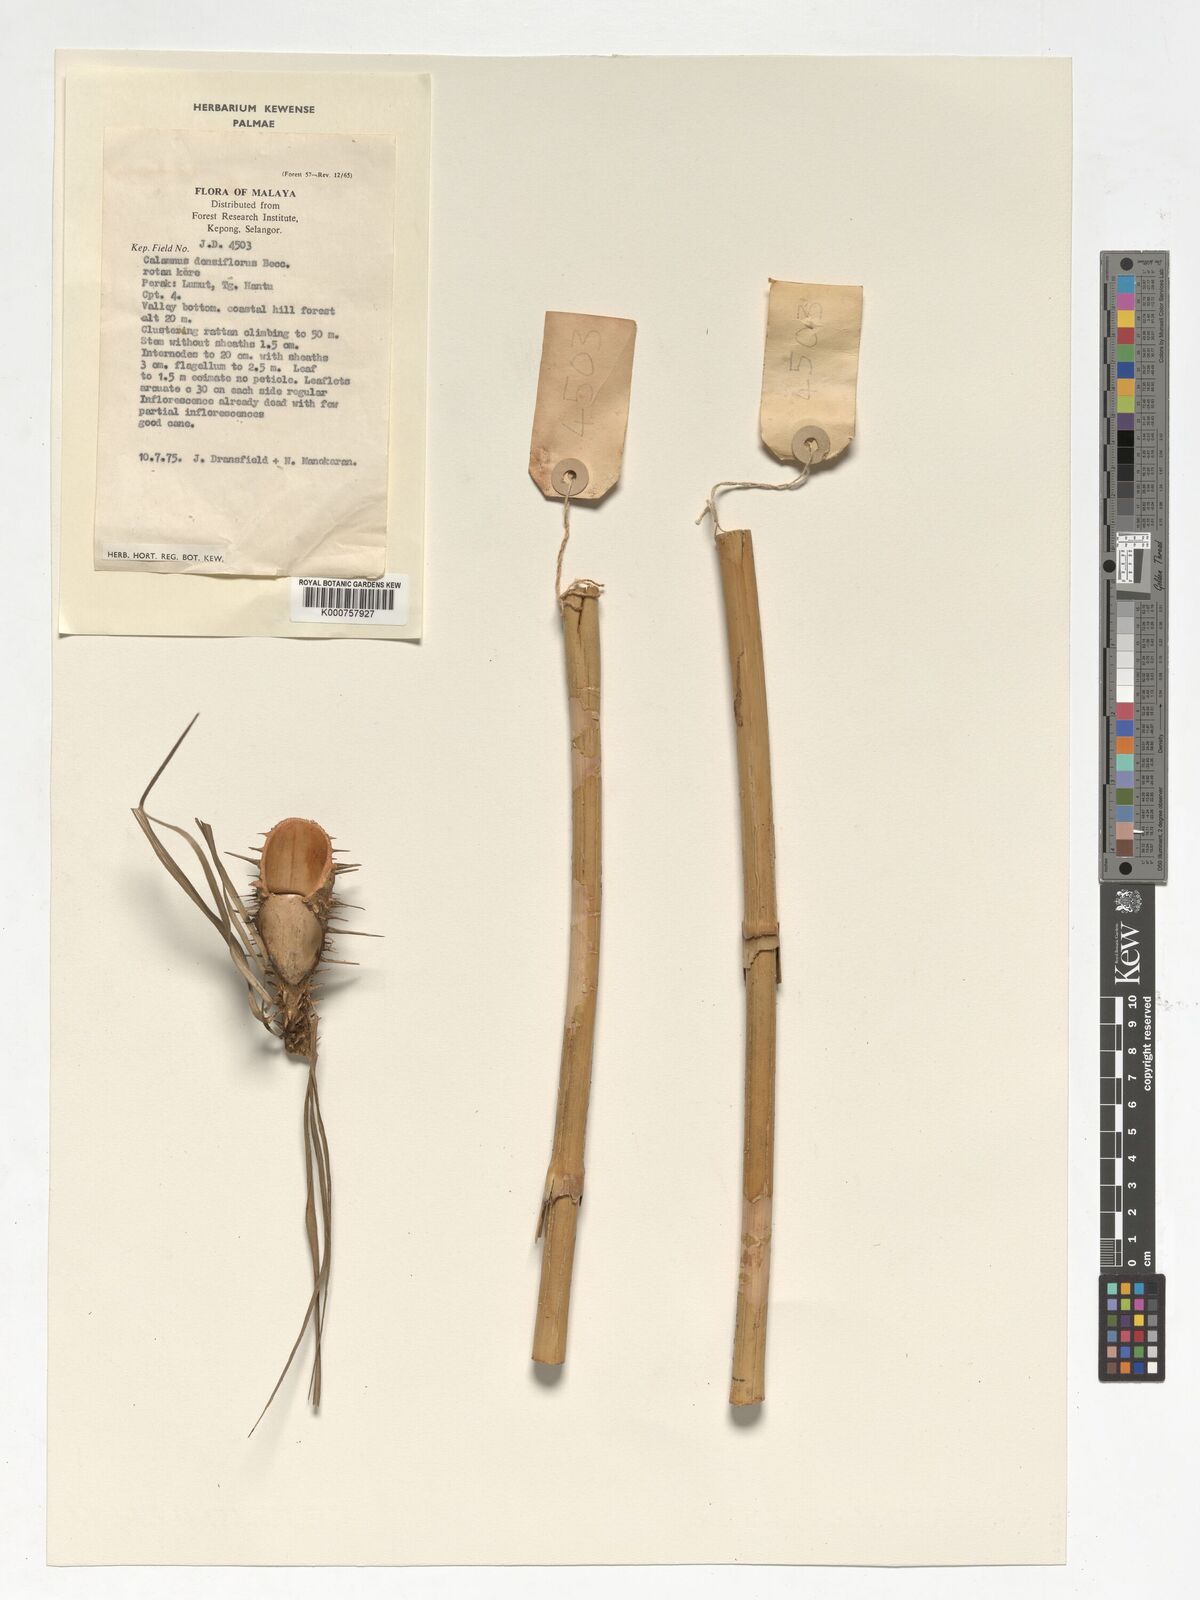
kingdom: Plantae
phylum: Tracheophyta
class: Liliopsida
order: Arecales
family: Arecaceae
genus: Calamus
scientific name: Calamus densiflorus
